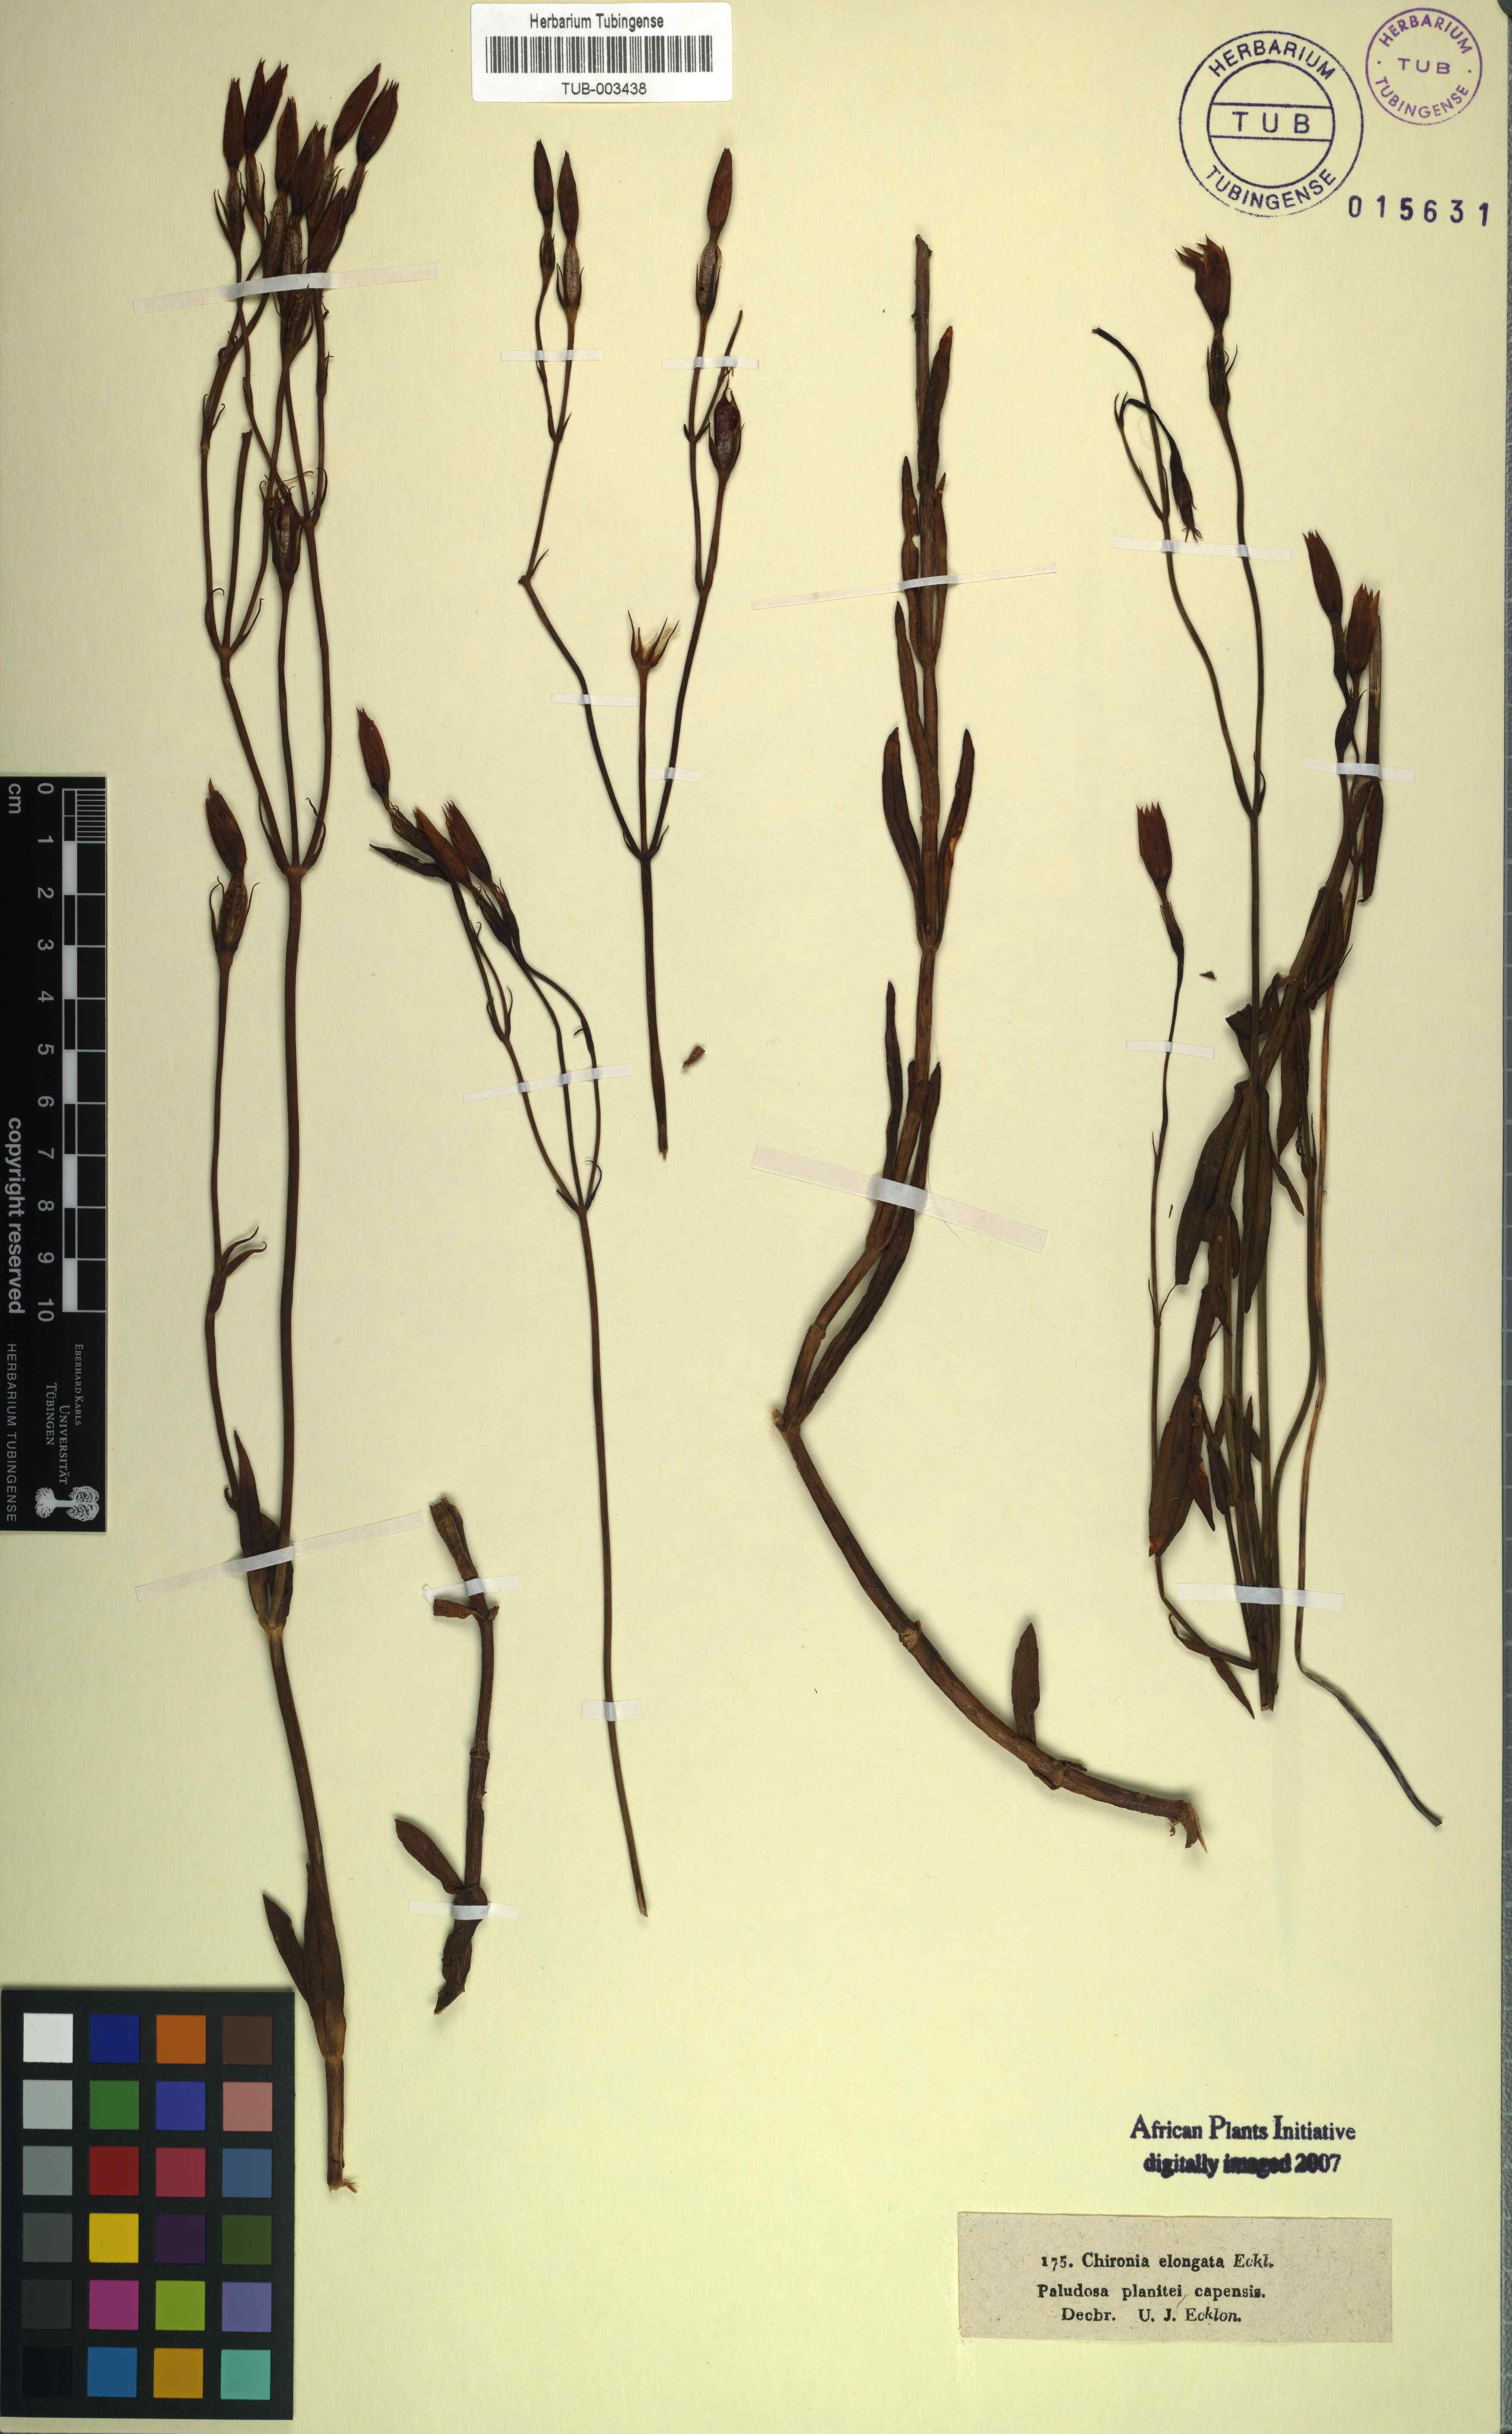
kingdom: Plantae
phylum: Tracheophyta
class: Magnoliopsida
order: Gentianales
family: Gentianaceae
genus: Chironia
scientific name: Chironia
